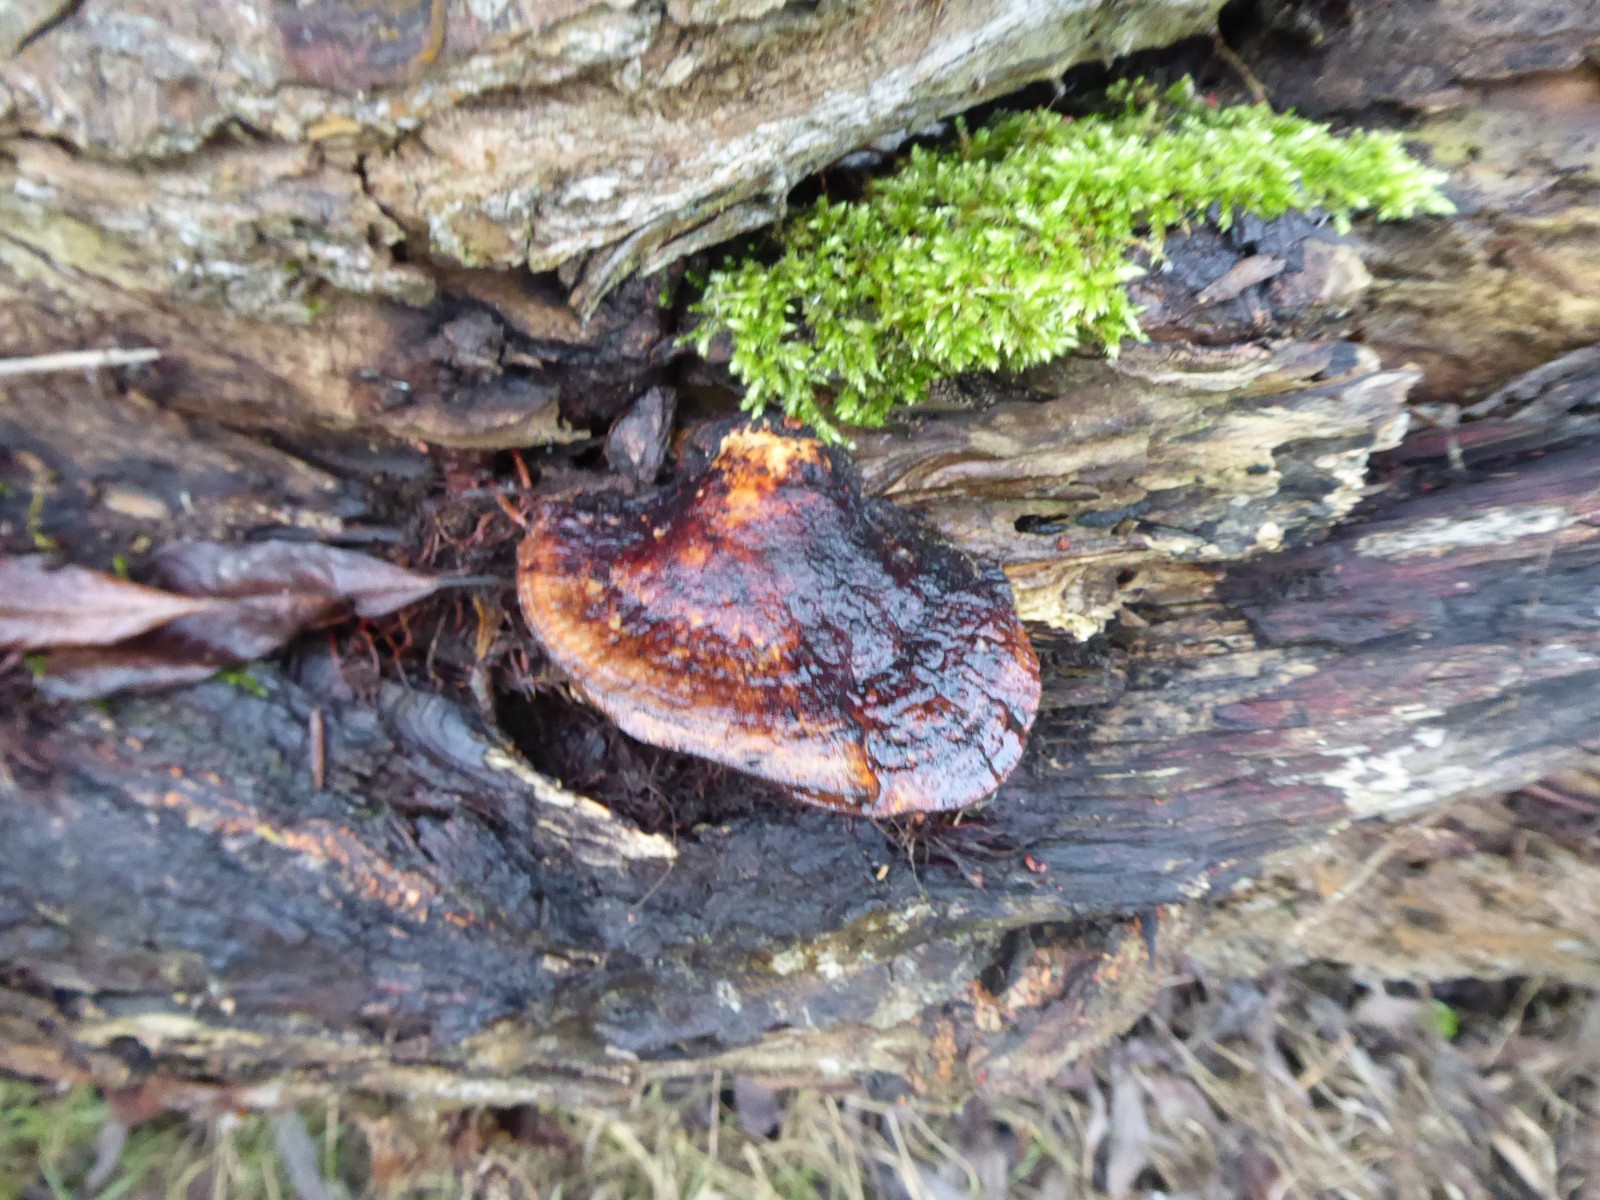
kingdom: Fungi
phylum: Basidiomycota
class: Agaricomycetes
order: Polyporales
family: Polyporaceae
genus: Daedaleopsis
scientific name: Daedaleopsis confragosa
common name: rødmende læderporesvamp
